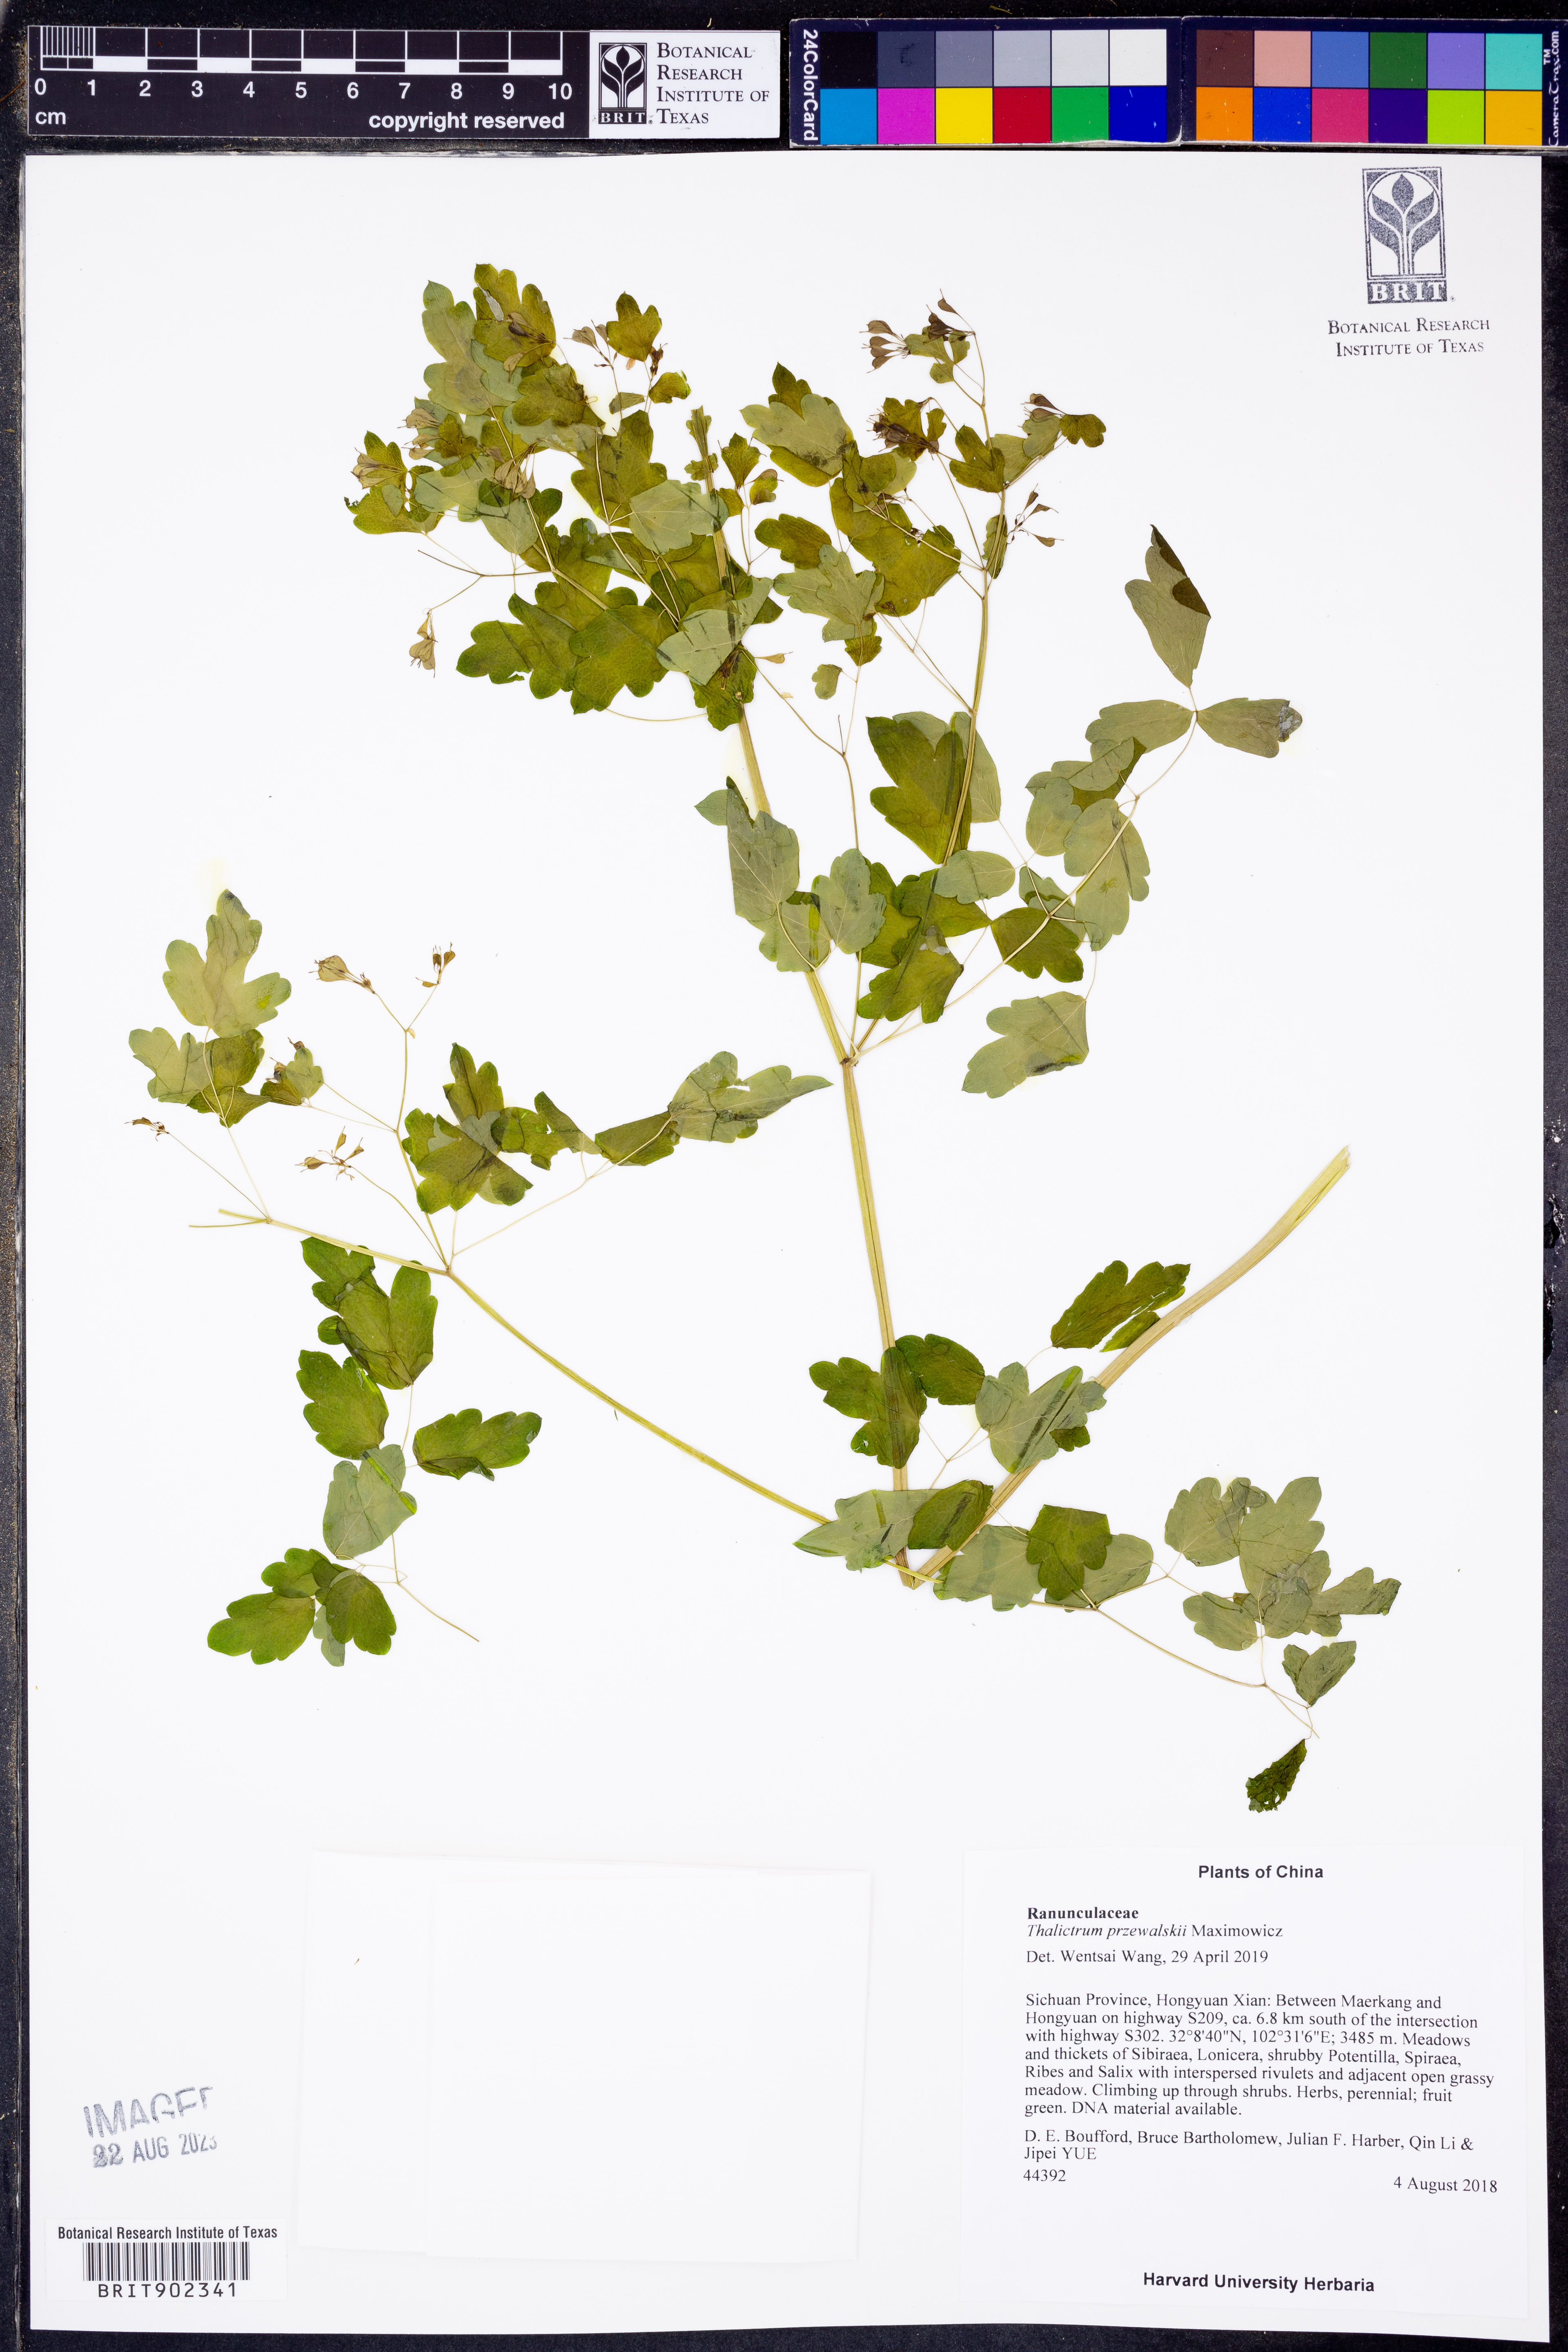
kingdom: Plantae
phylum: Tracheophyta
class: Magnoliopsida
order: Ranunculales
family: Ranunculaceae
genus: Thalictrum
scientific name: Thalictrum przewalskii
